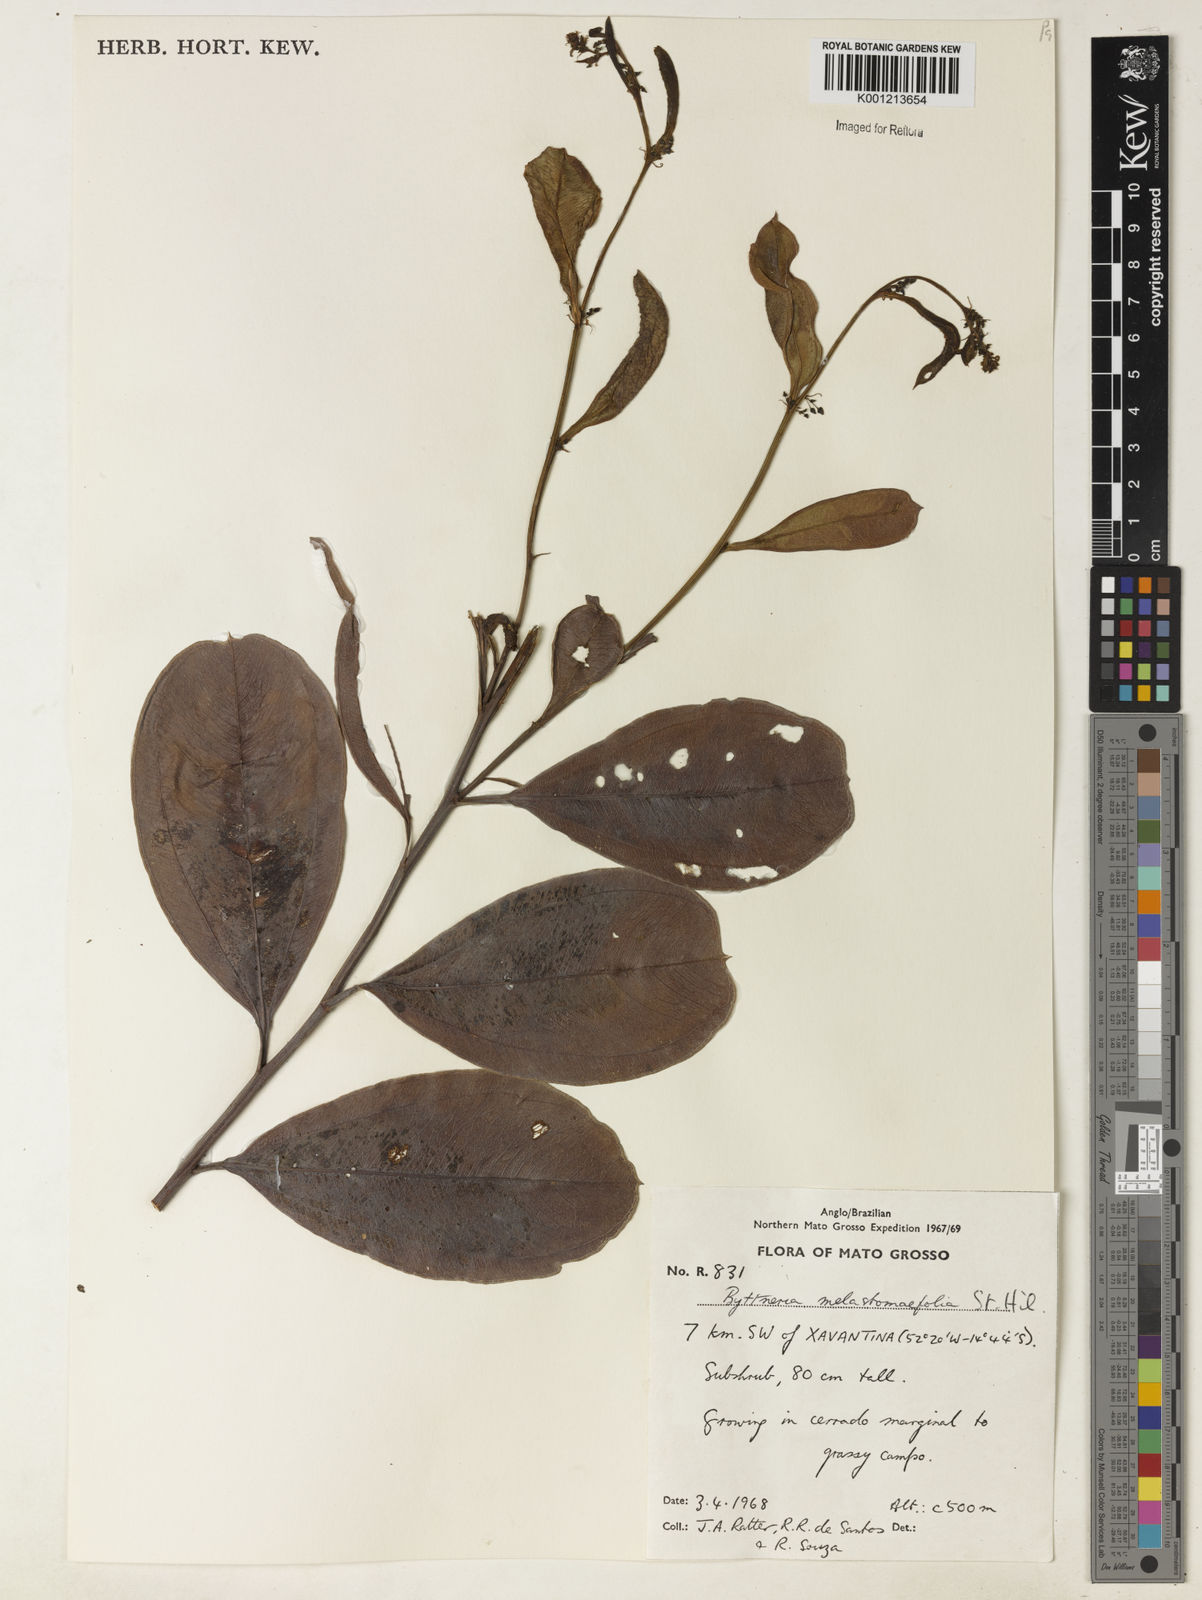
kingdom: Plantae
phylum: Tracheophyta
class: Magnoliopsida
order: Malvales
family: Malvaceae
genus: Byttneria
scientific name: Byttneria melastomifolia
